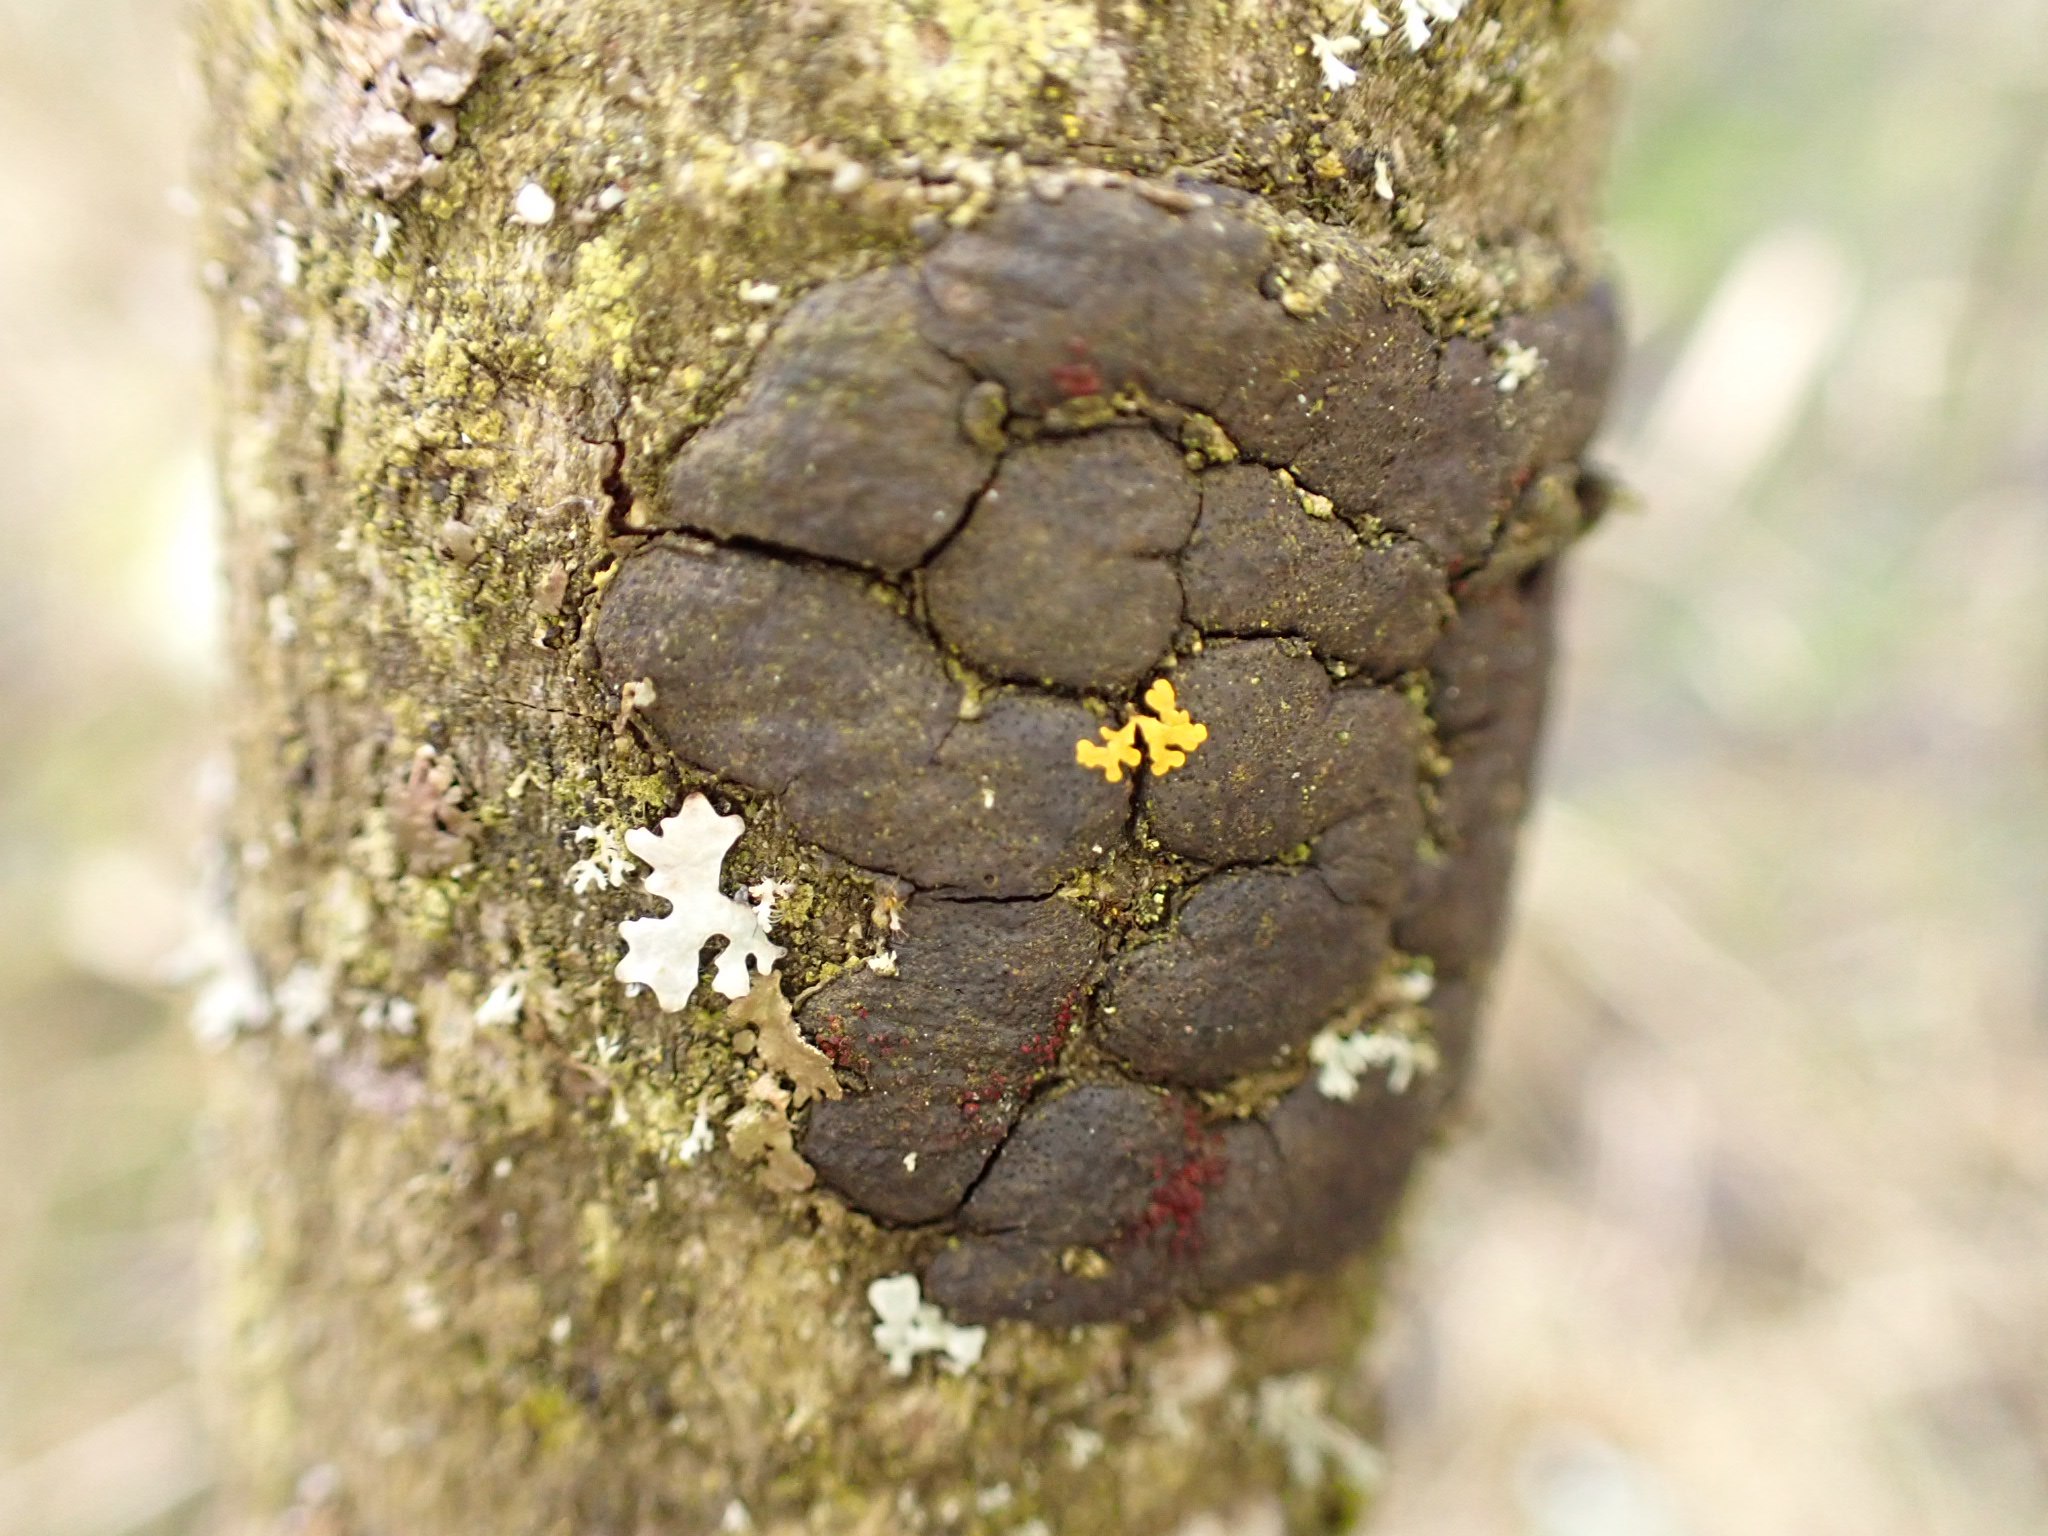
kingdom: Fungi
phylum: Ascomycota
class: Sordariomycetes
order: Xylariales
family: Diatrypaceae
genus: Diatrype
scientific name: Diatrype bullata
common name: pile-kulskorpe
